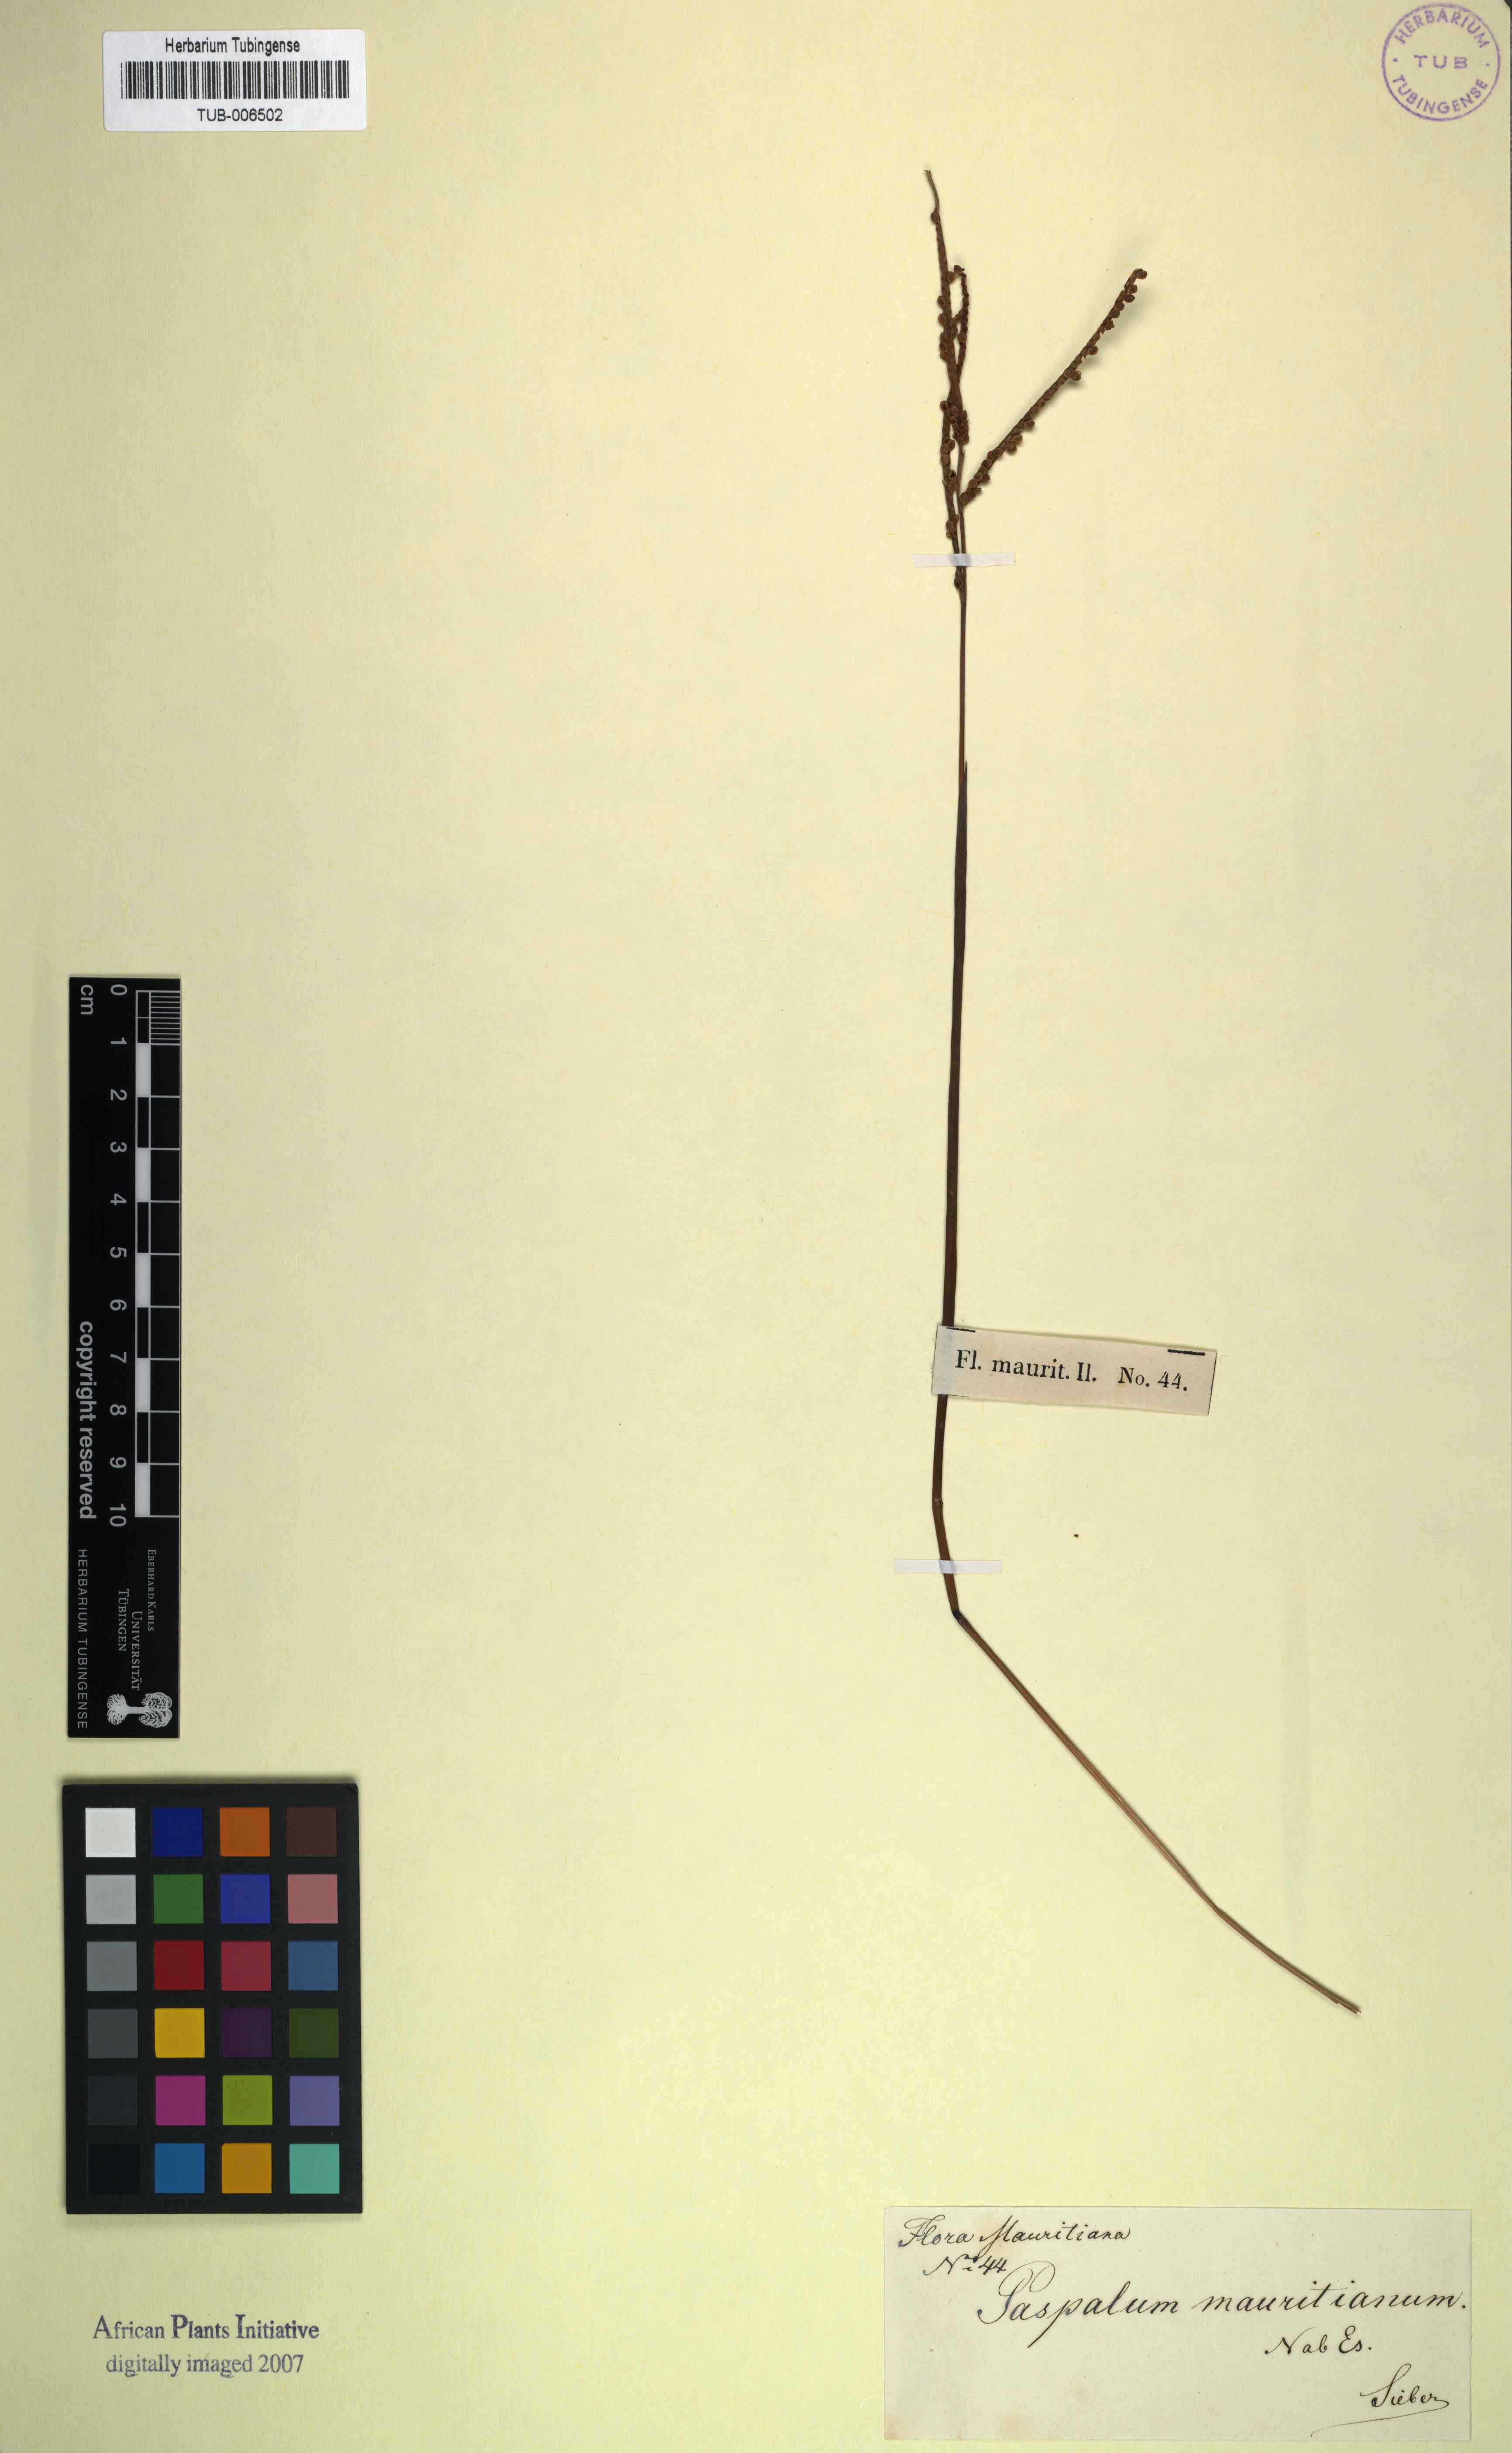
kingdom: Plantae
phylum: Tracheophyta
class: Liliopsida
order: Poales
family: Poaceae
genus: Paspalum
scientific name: Paspalum scrobiculatum
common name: Kodo millet
